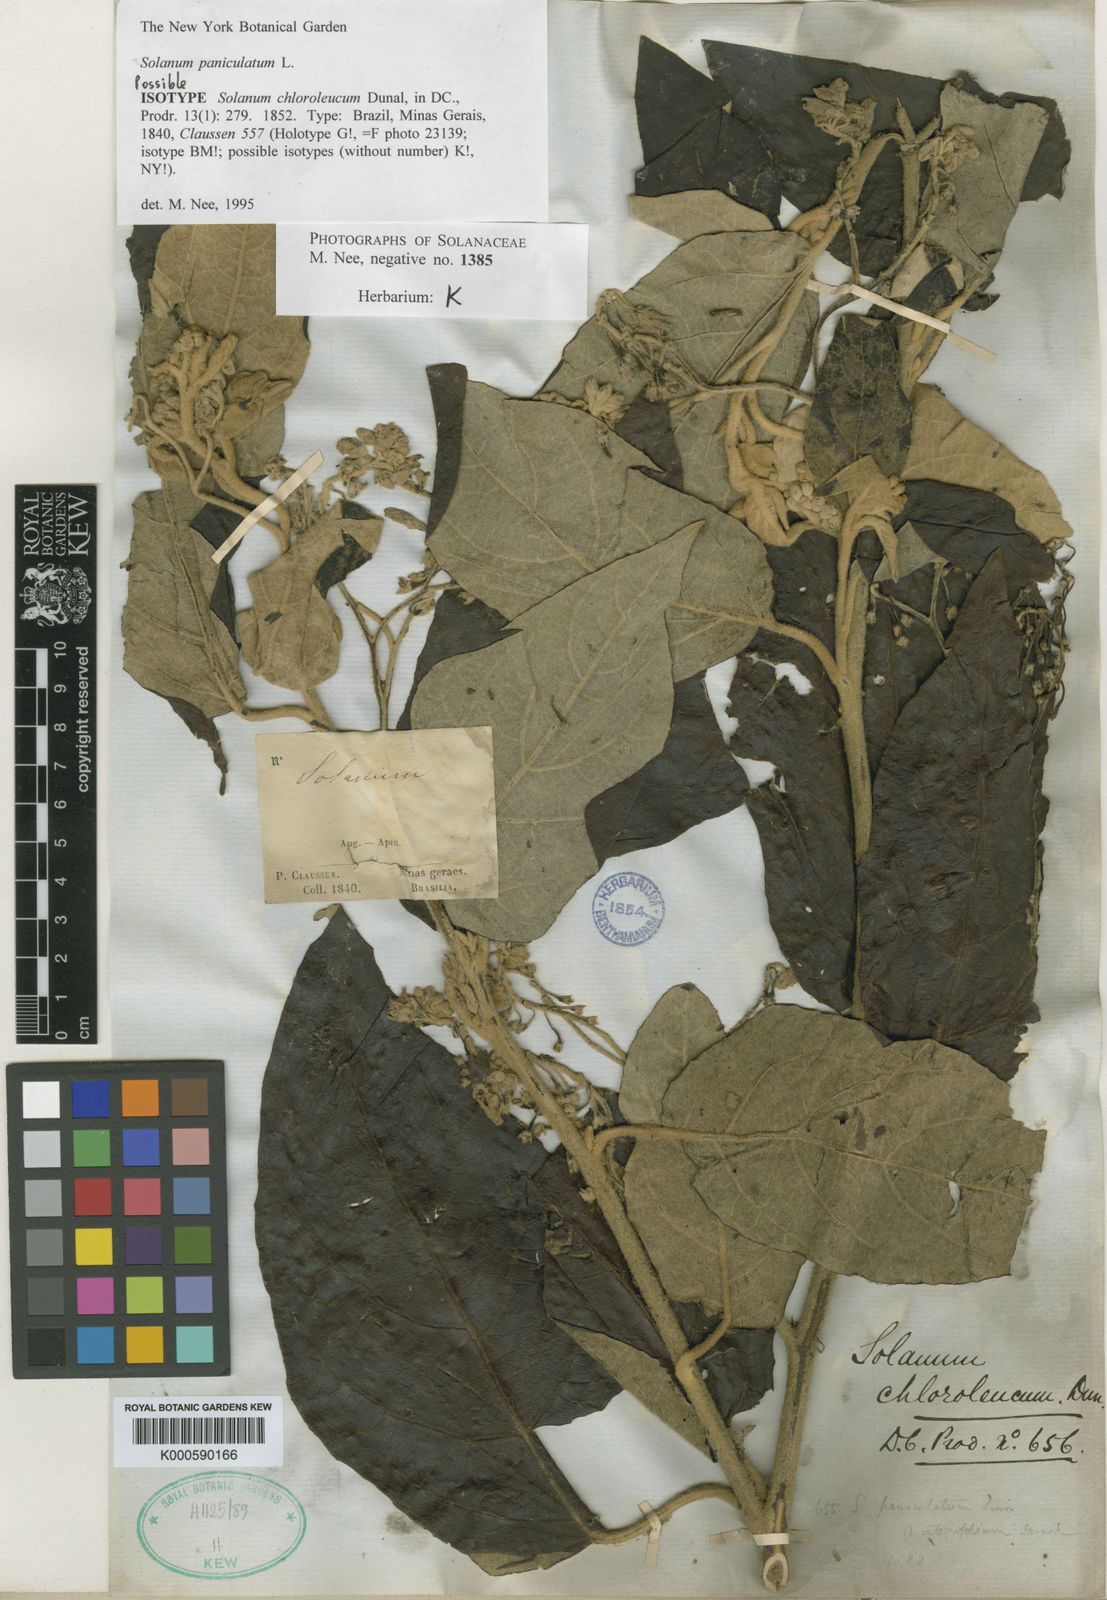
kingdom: Plantae
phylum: Tracheophyta
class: Magnoliopsida
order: Solanales
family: Solanaceae
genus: Solanum
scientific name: Solanum paniculatum
